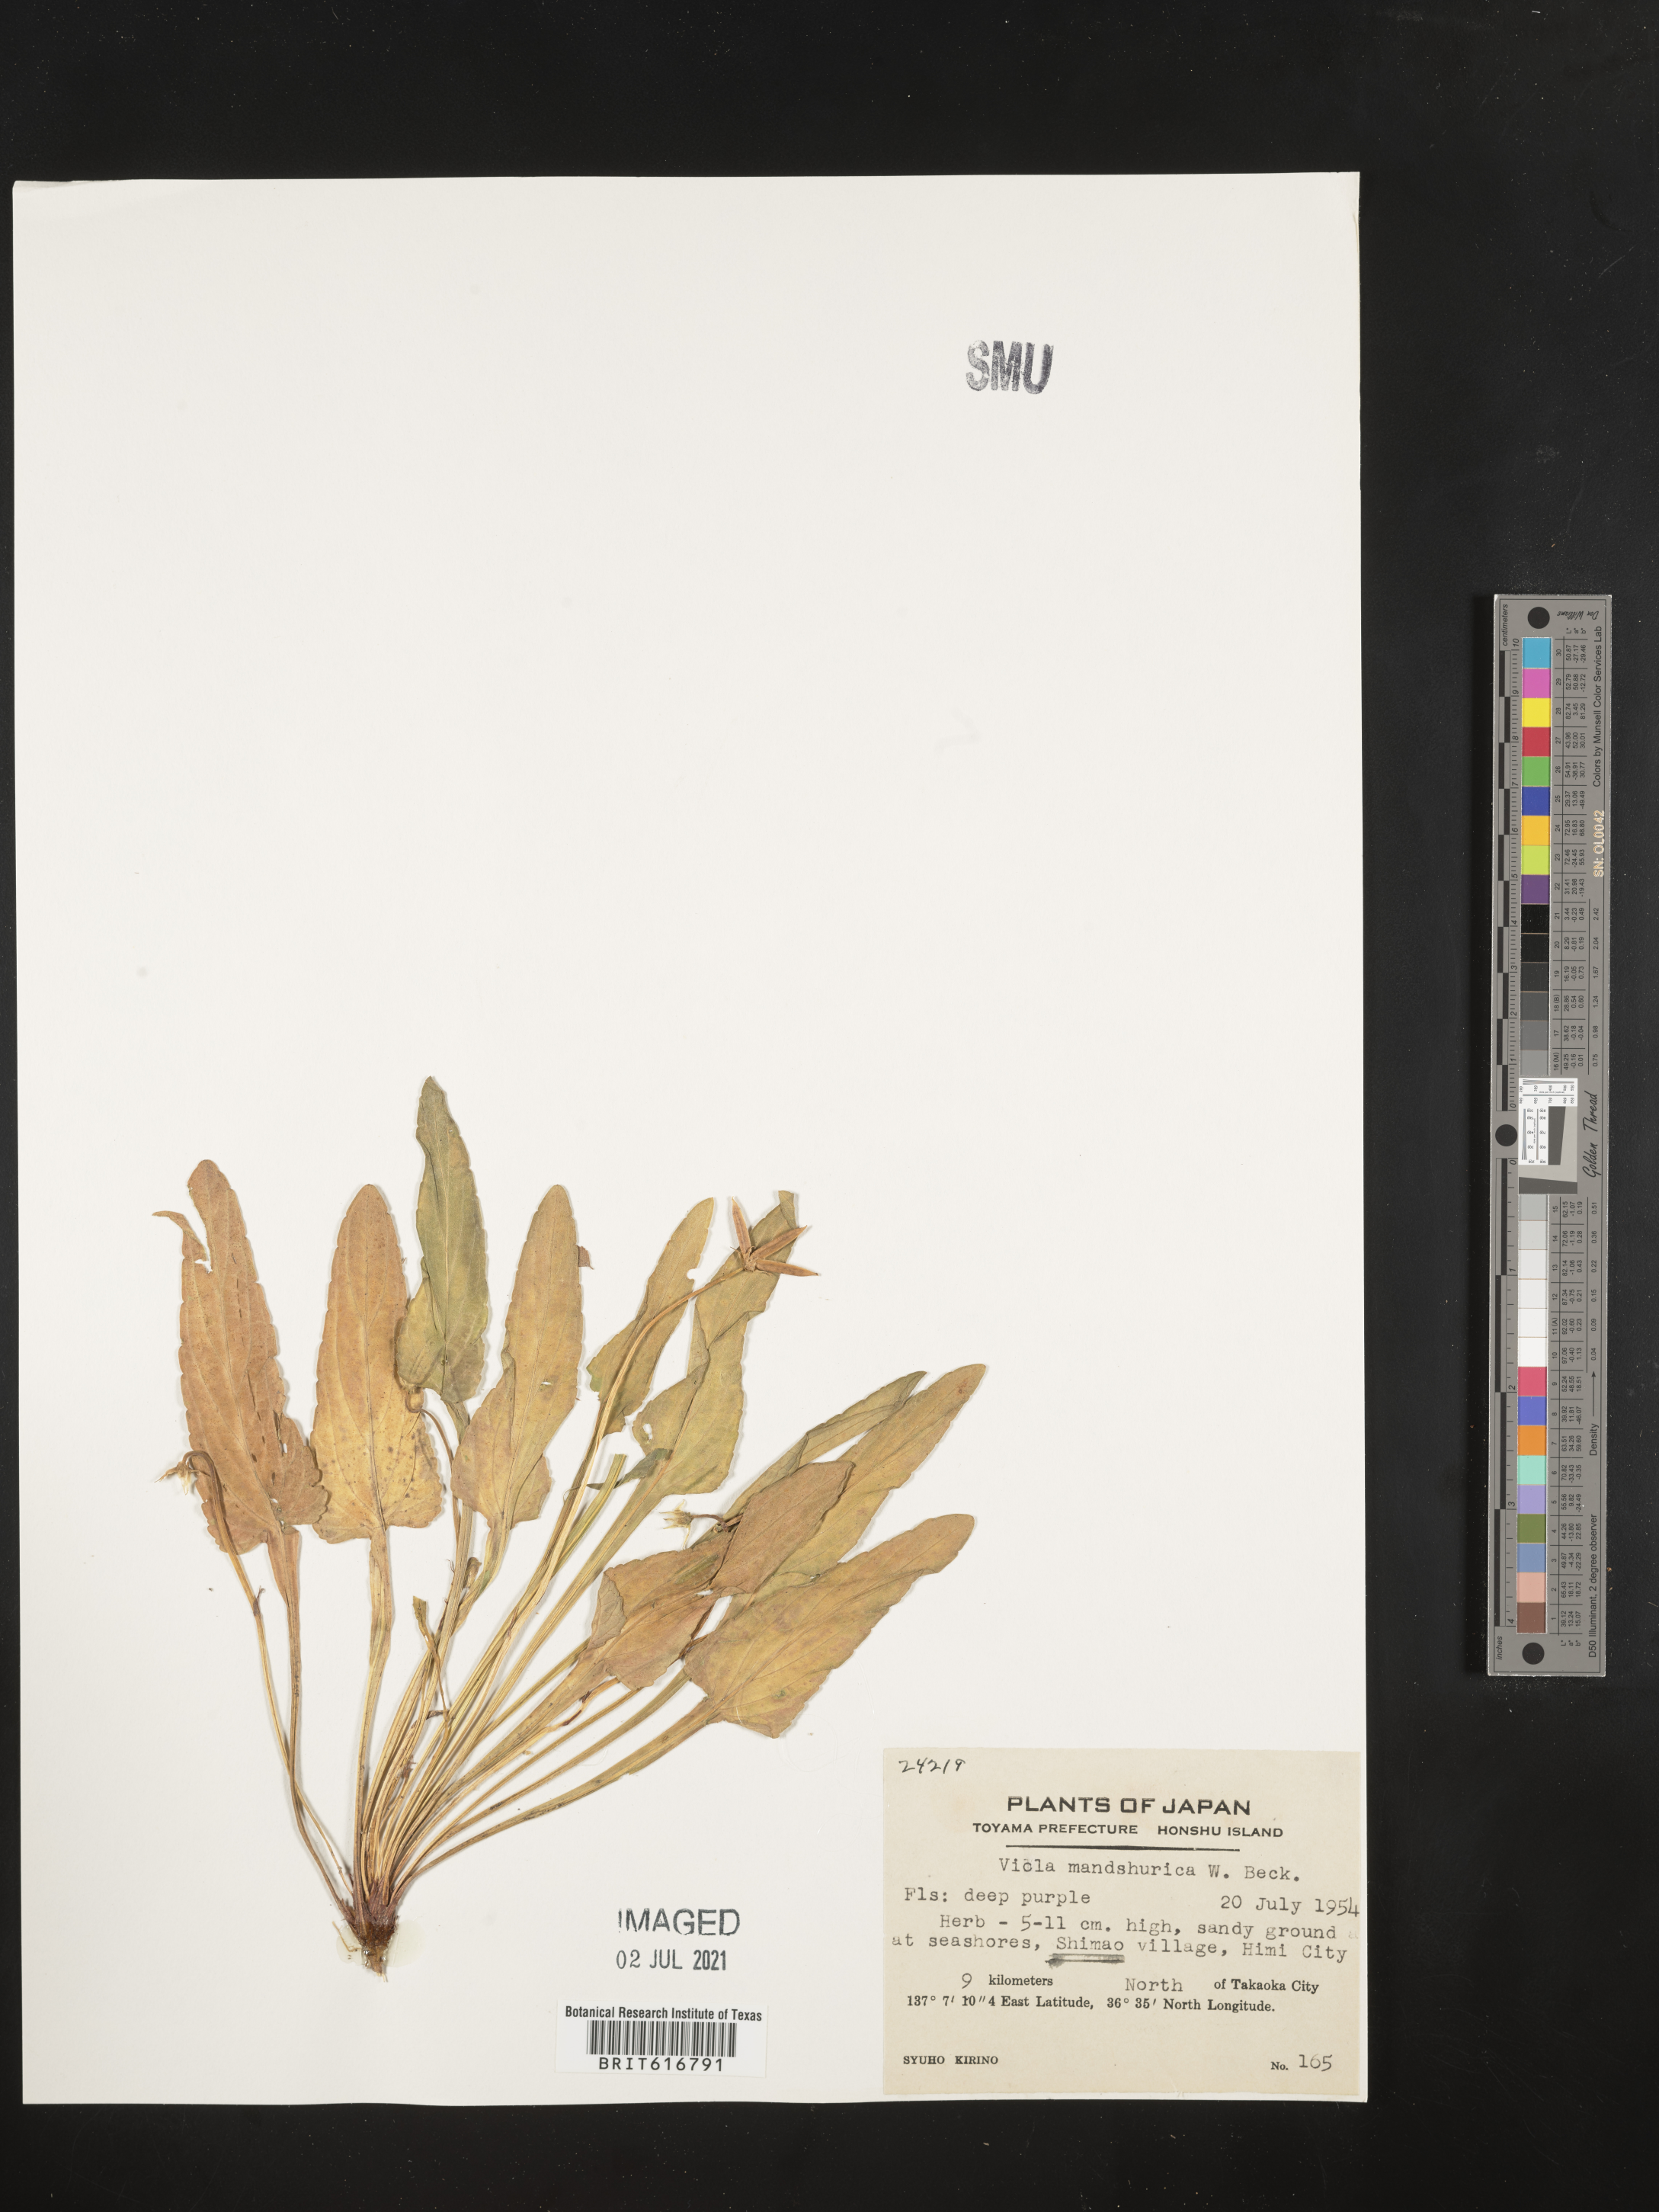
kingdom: Plantae
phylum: Tracheophyta
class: Magnoliopsida
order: Malpighiales
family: Violaceae
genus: Viola
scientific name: Viola mandshurica
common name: Manchuria violet
